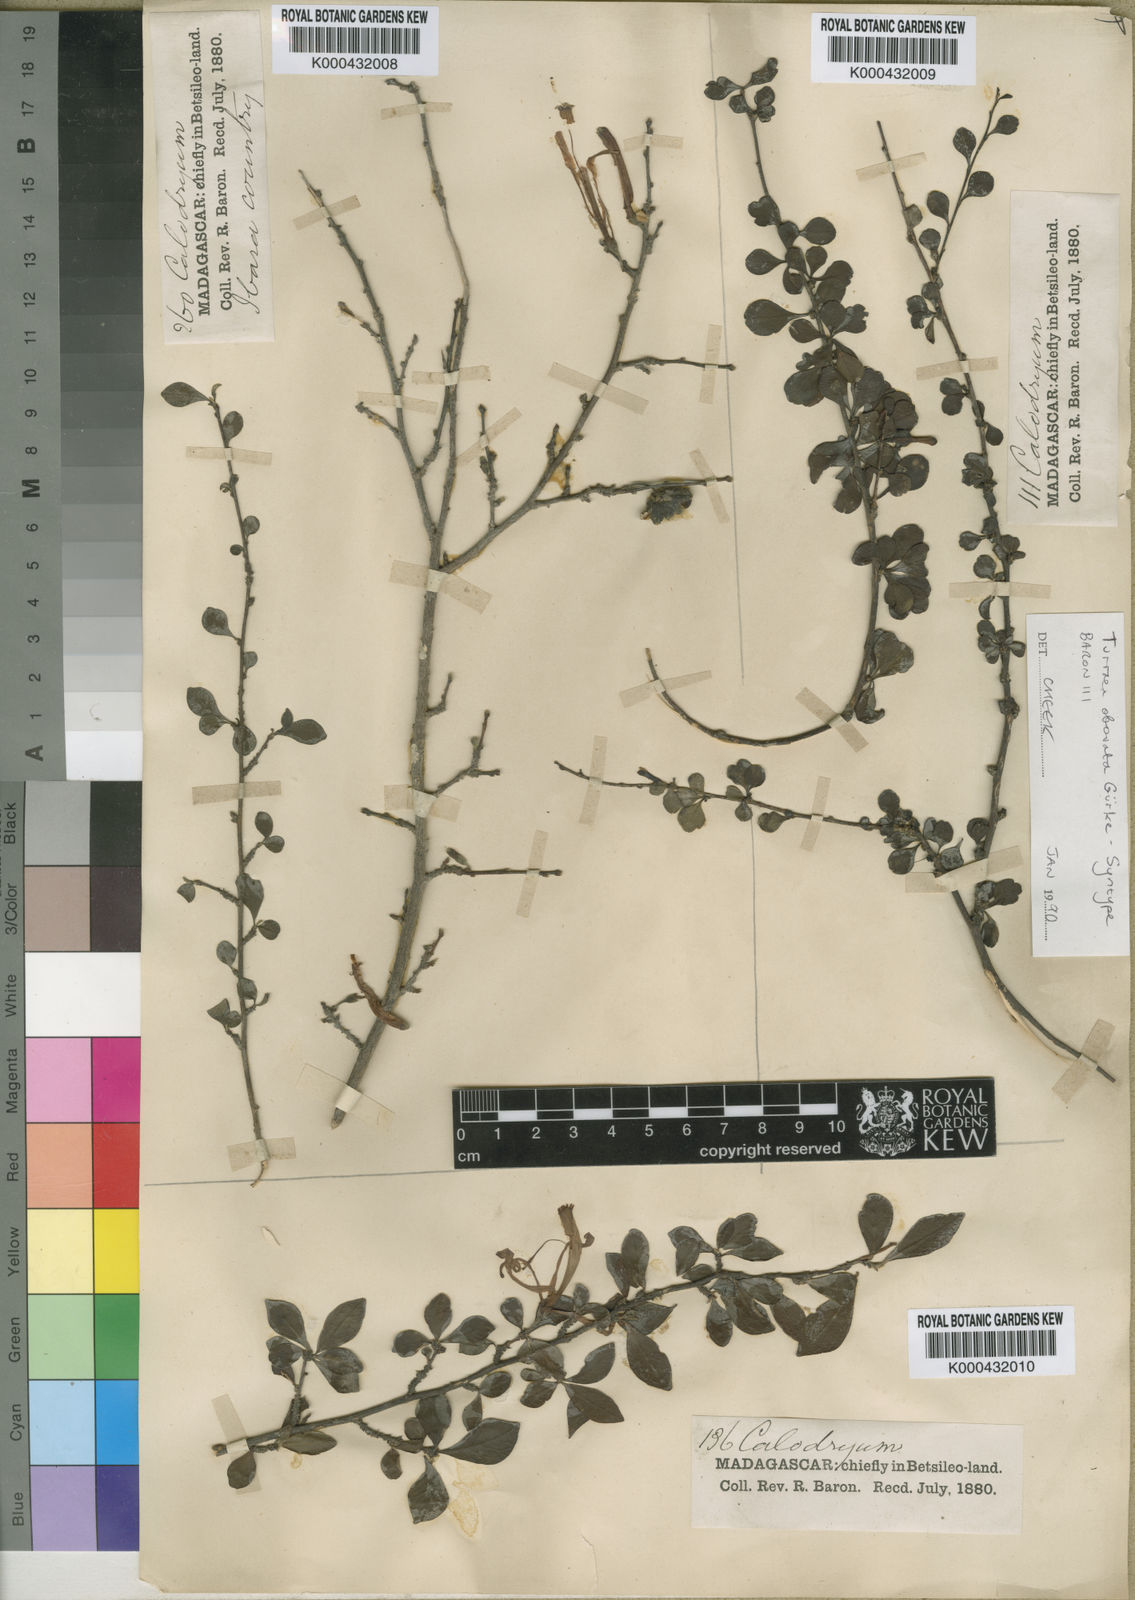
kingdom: Plantae
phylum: Tracheophyta
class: Magnoliopsida
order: Sapindales
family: Meliaceae
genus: Turraea
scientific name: Turraea
